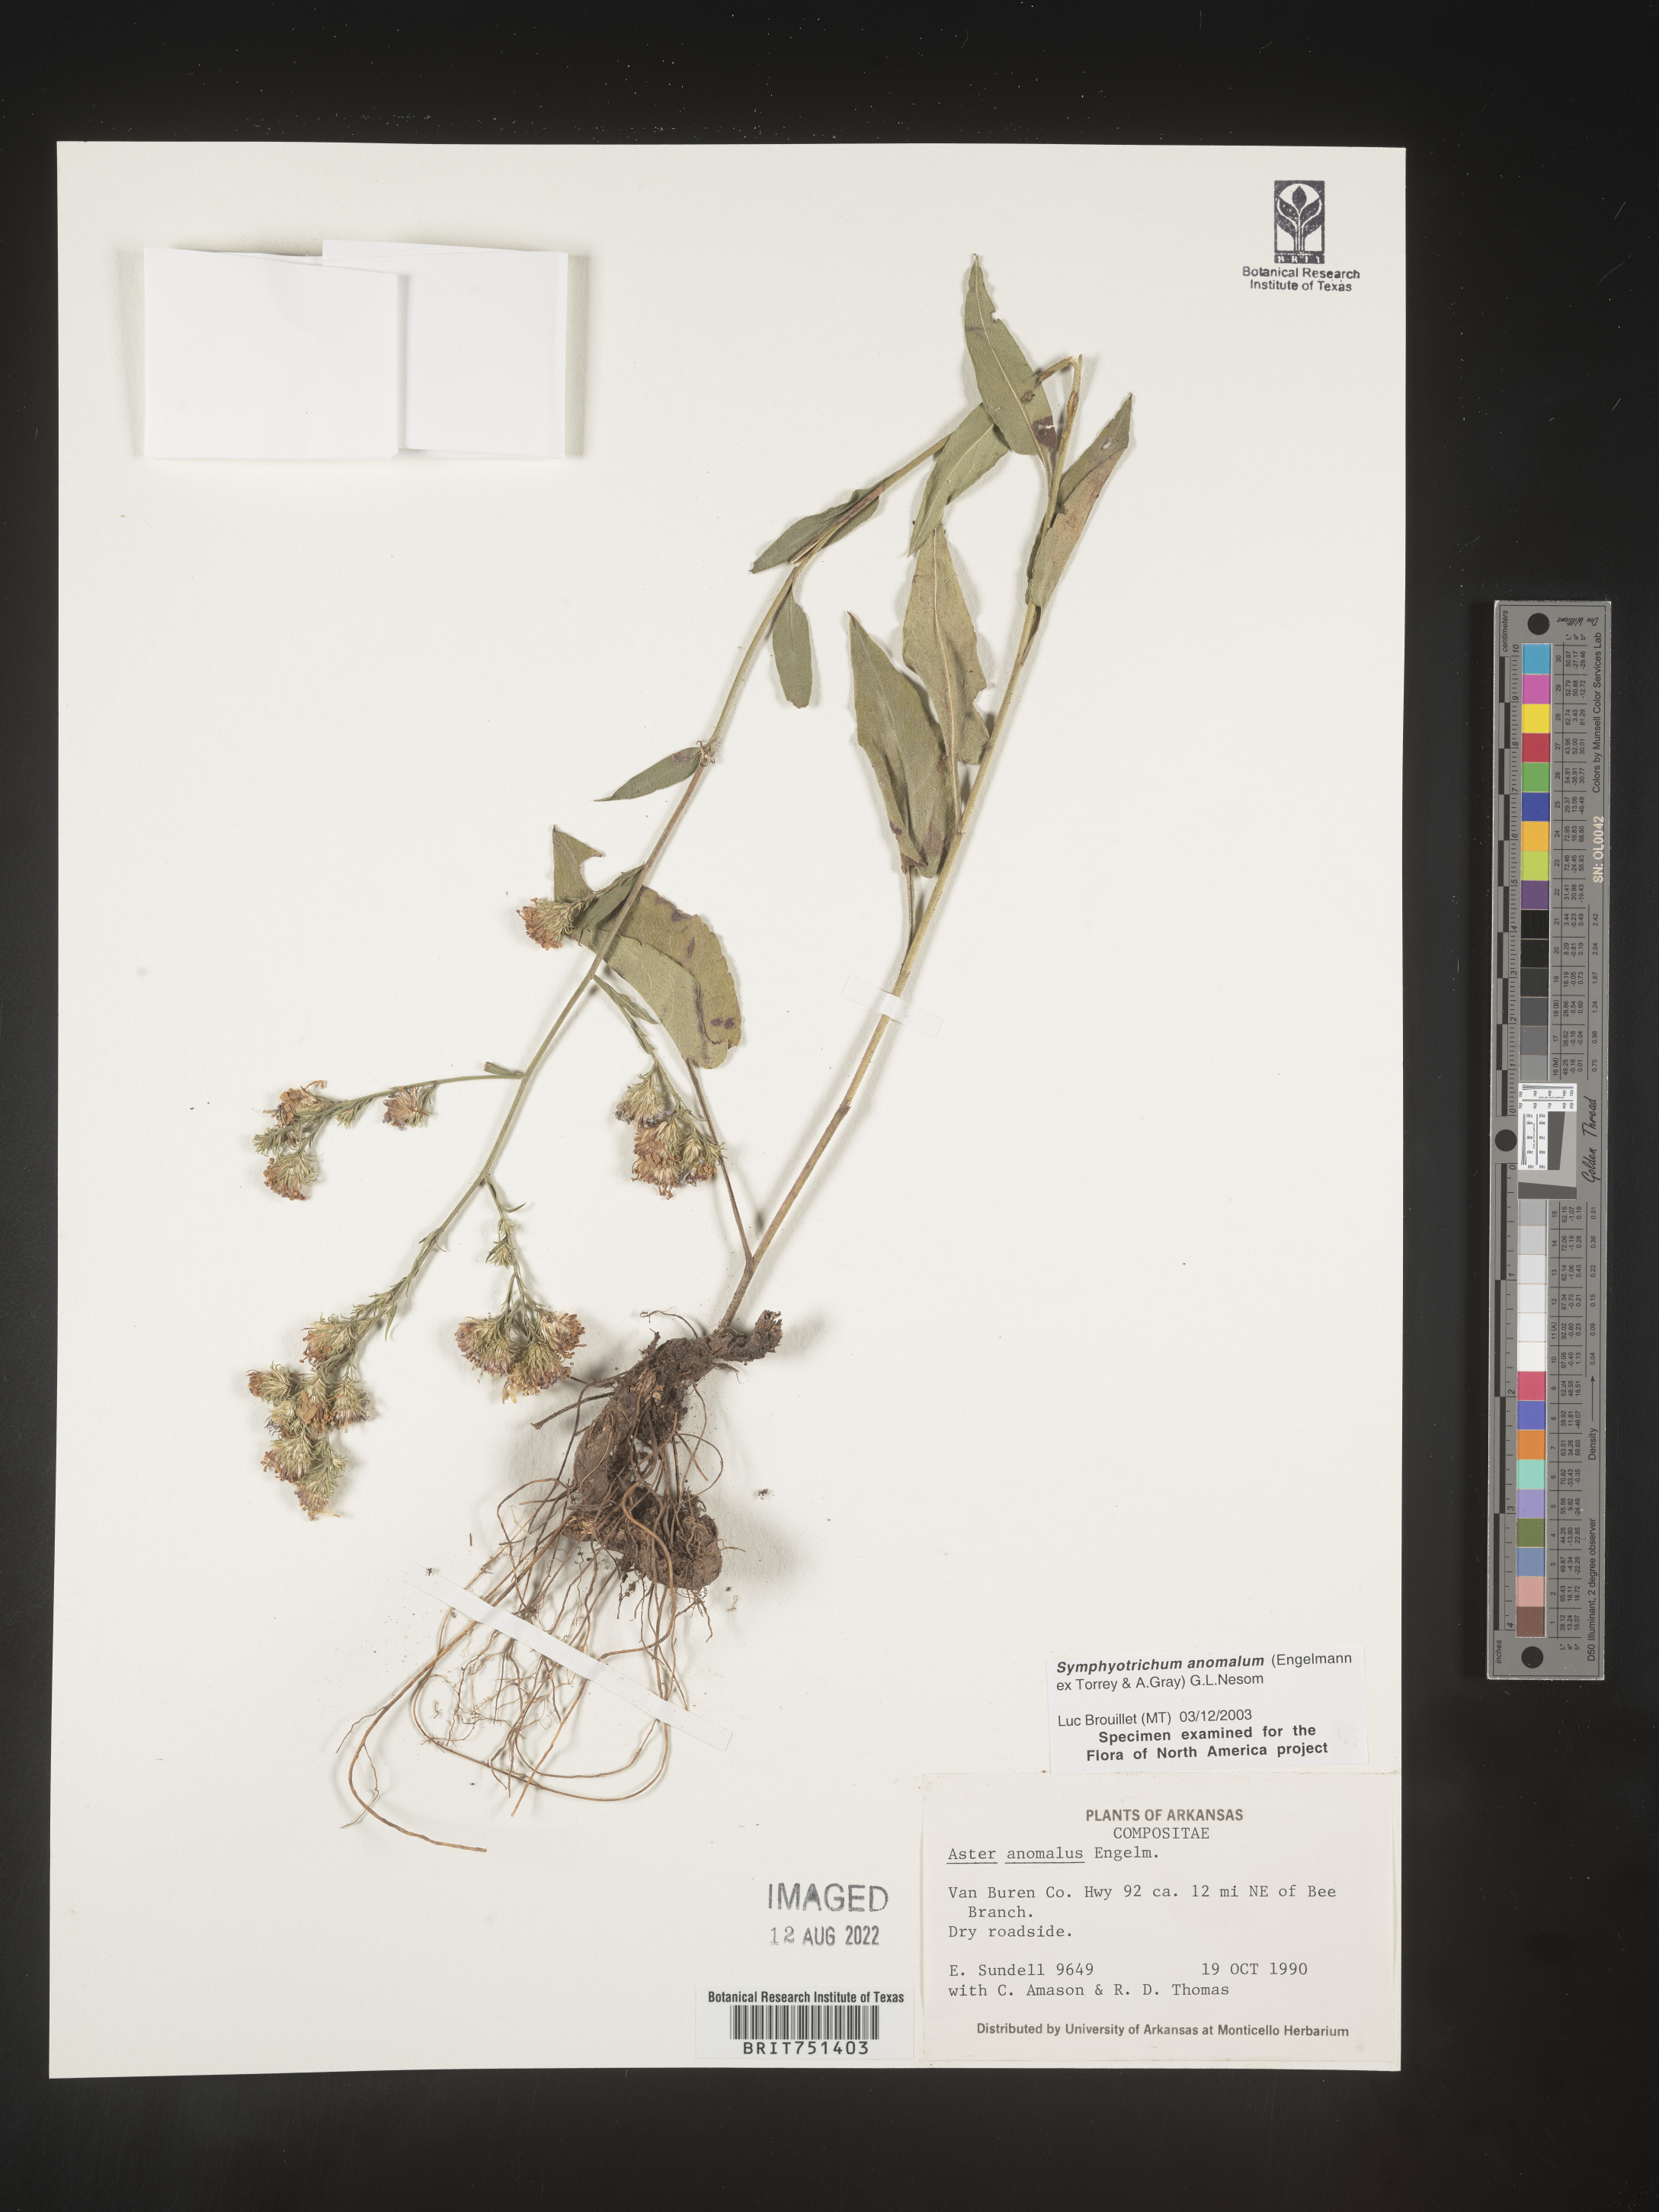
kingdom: Plantae
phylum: Tracheophyta
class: Magnoliopsida
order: Asterales
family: Asteraceae
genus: Symphyotrichum
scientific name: Symphyotrichum anomalum
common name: Many-ray aster
